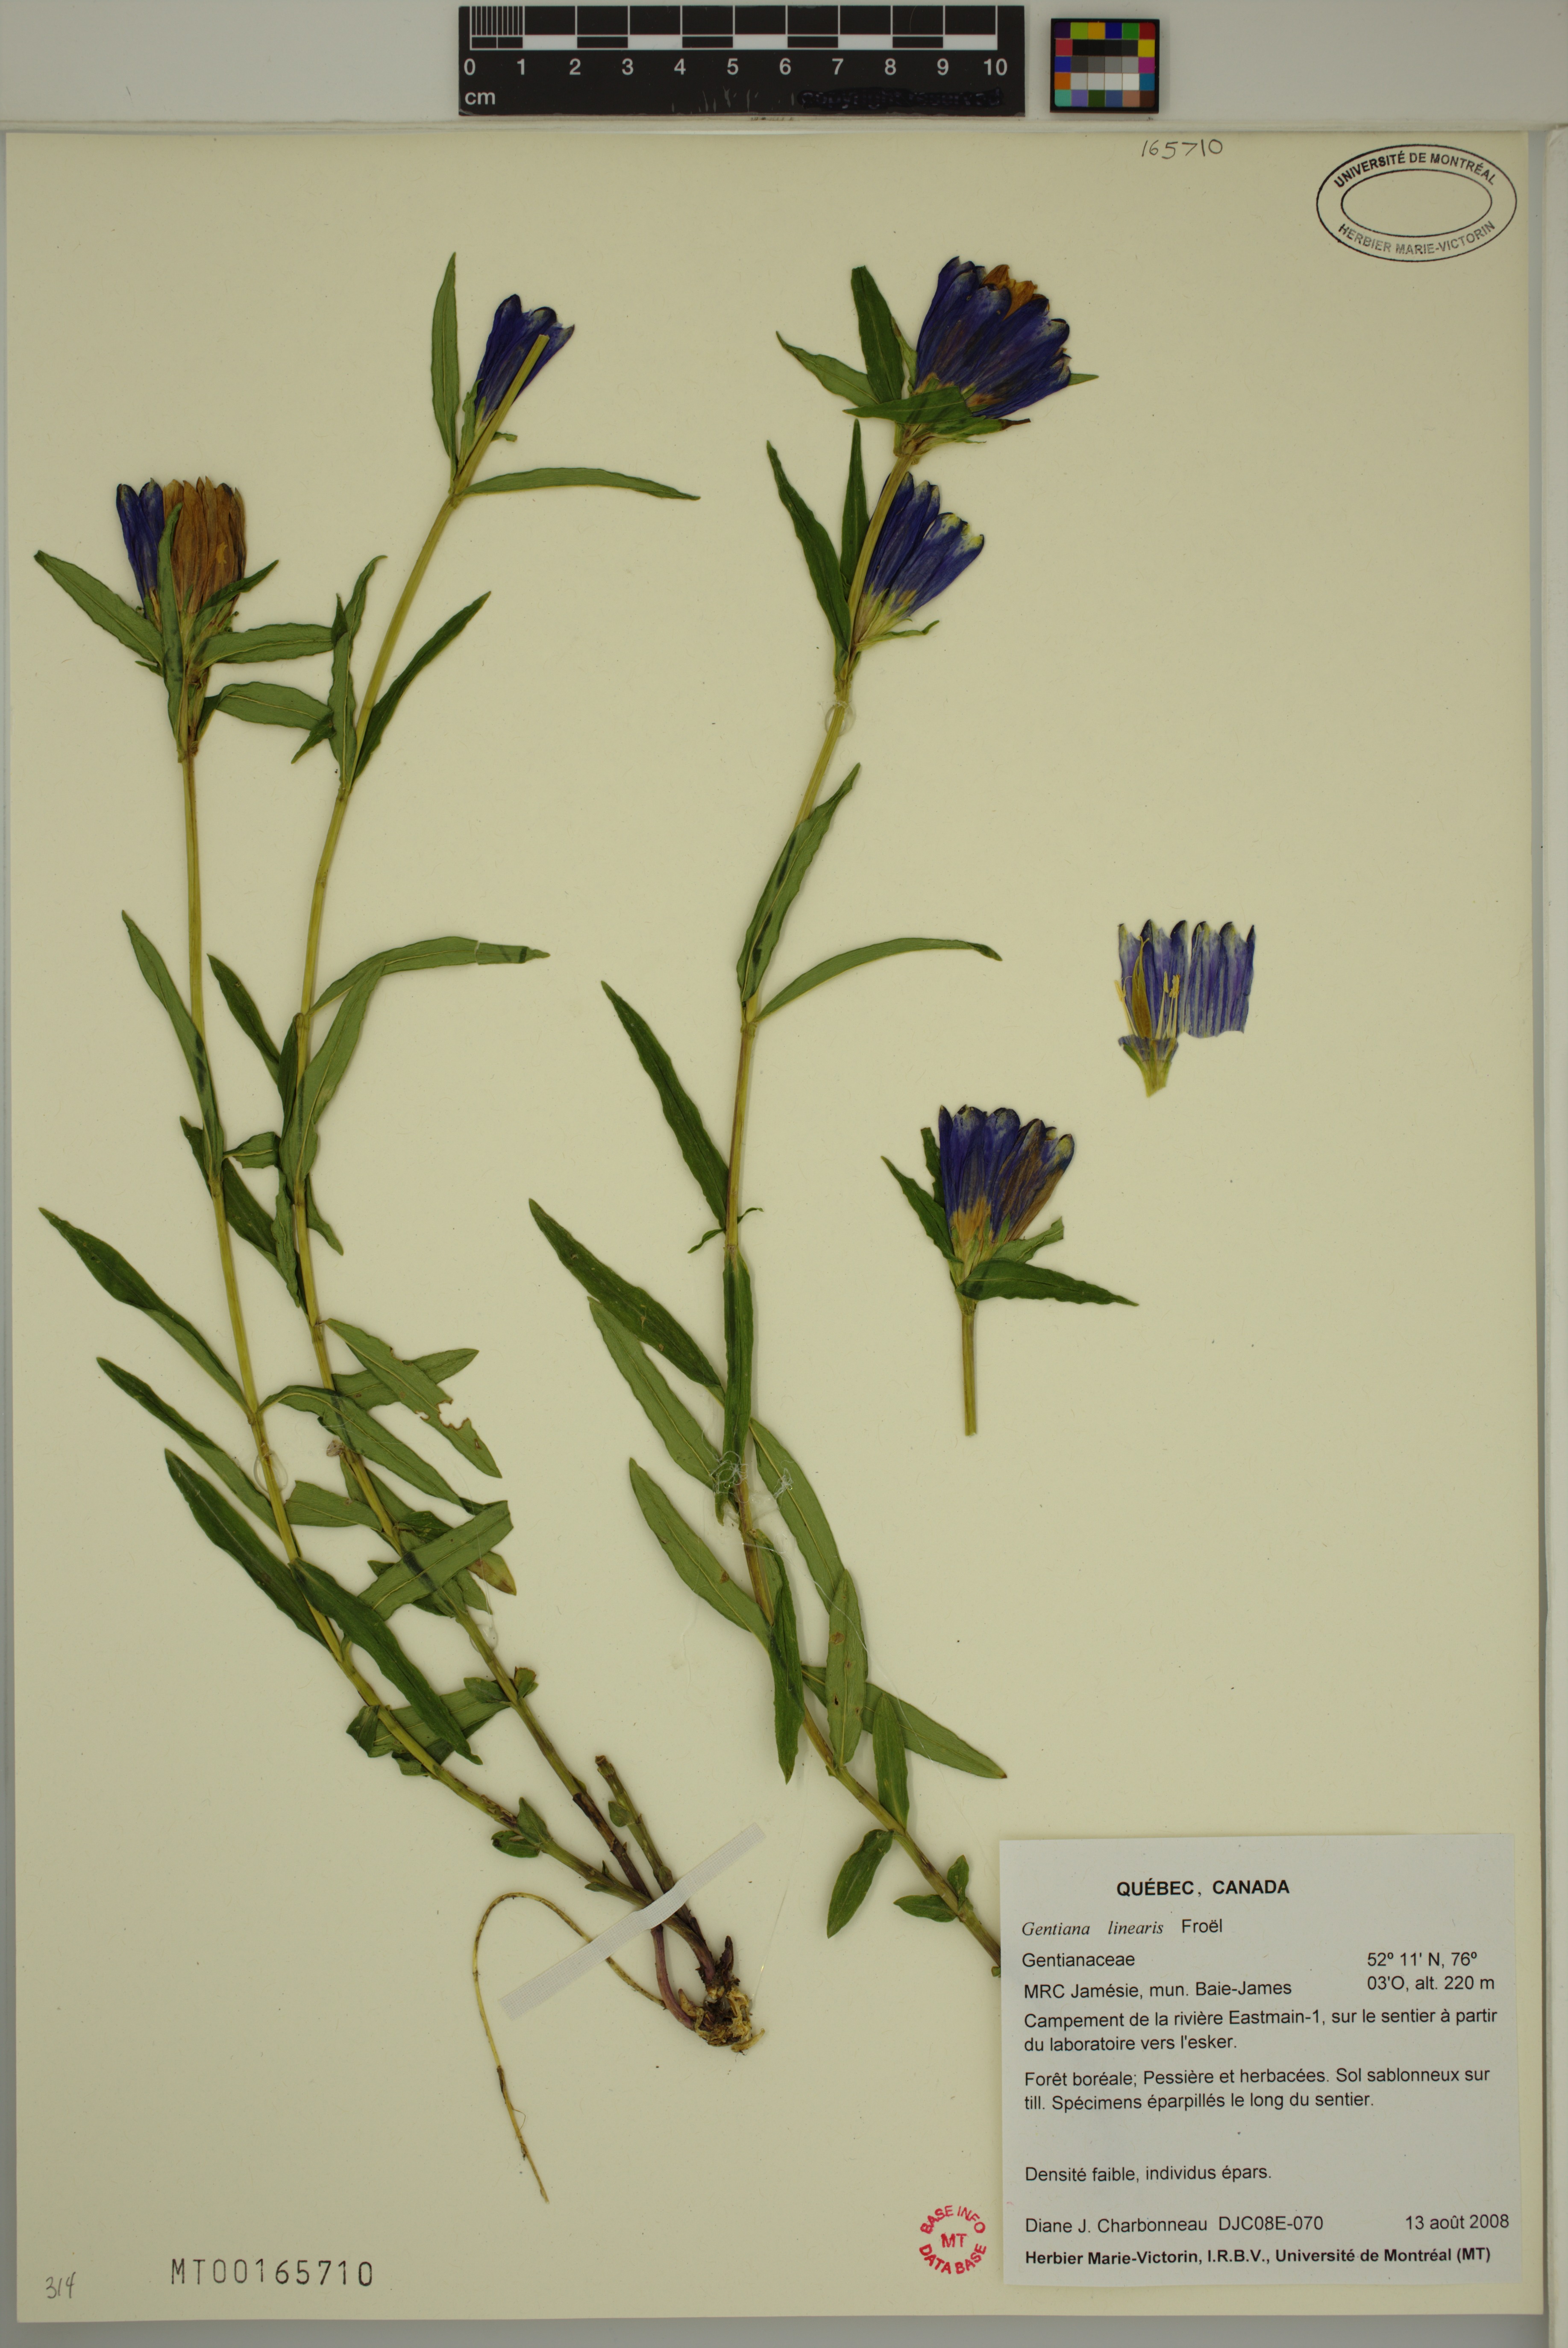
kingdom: Plantae
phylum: Tracheophyta
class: Magnoliopsida
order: Gentianales
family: Gentianaceae
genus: Gentiana
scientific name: Gentiana linearis
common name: Bastard gentian
